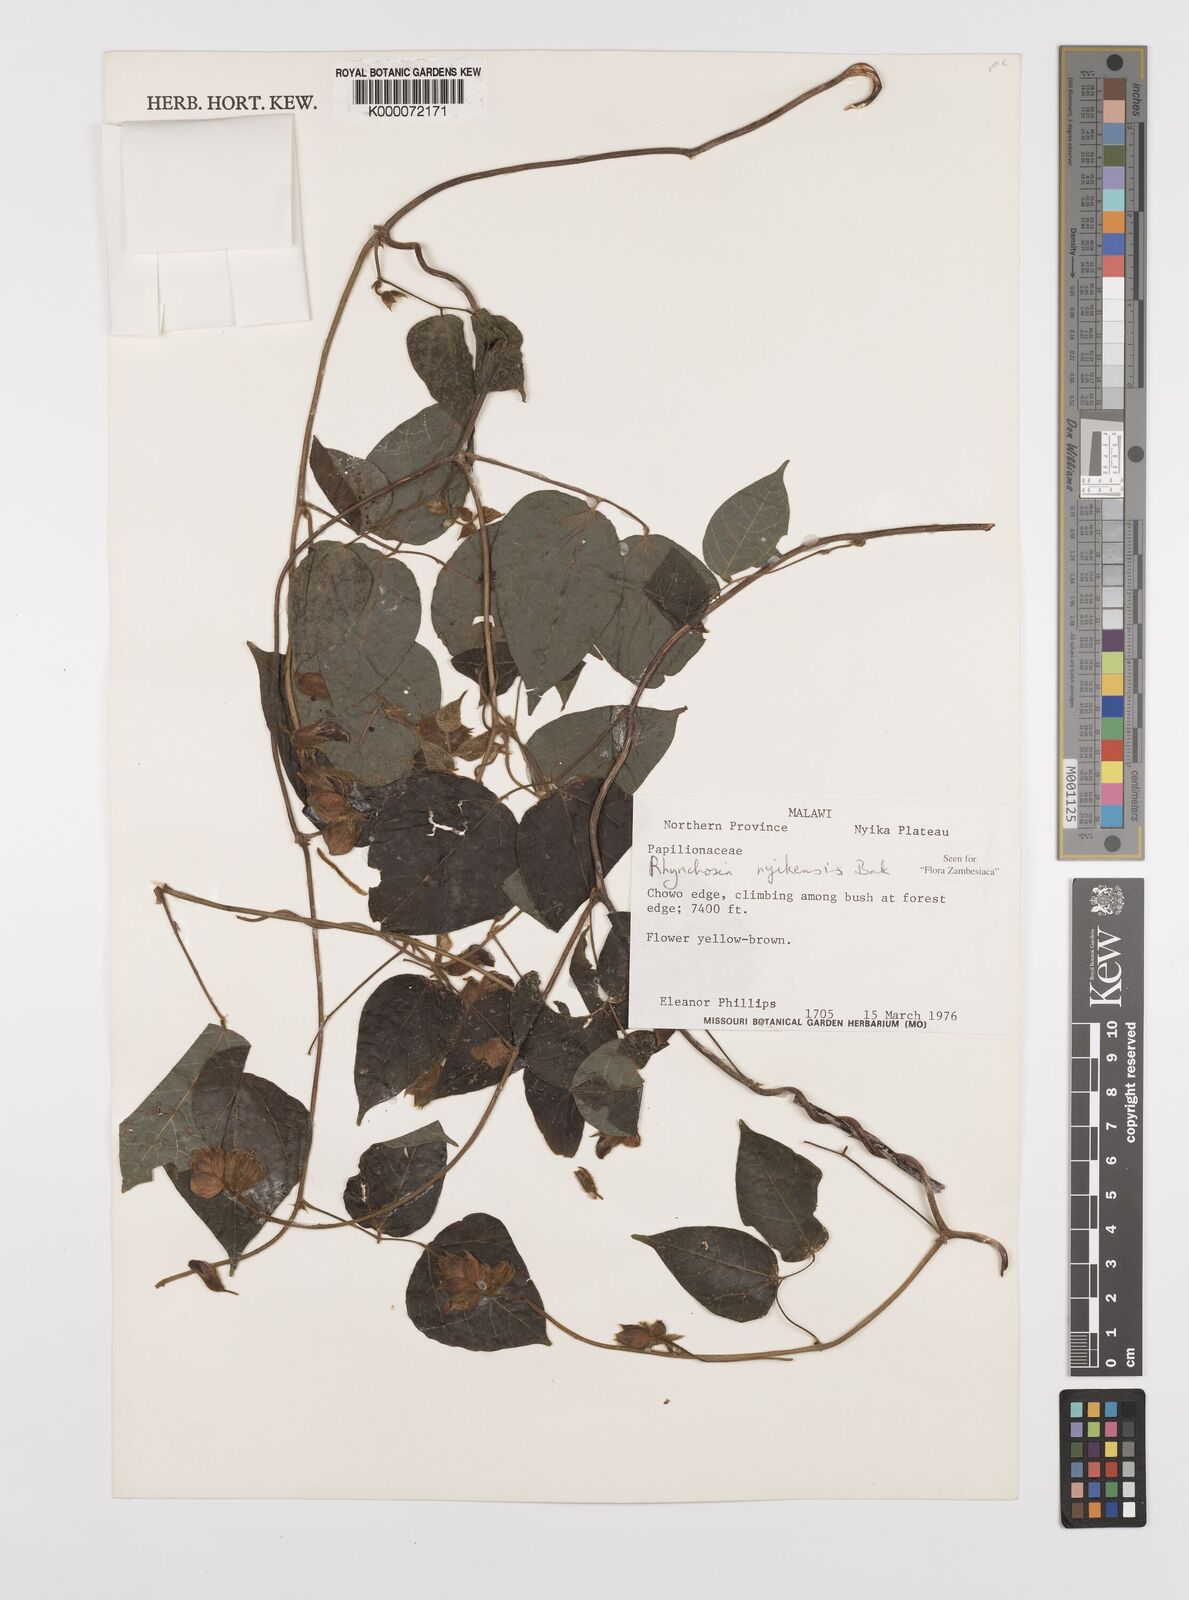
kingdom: Plantae
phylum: Tracheophyta
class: Magnoliopsida
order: Fabales
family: Fabaceae
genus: Rhynchosia
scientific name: Rhynchosia nyikensis
